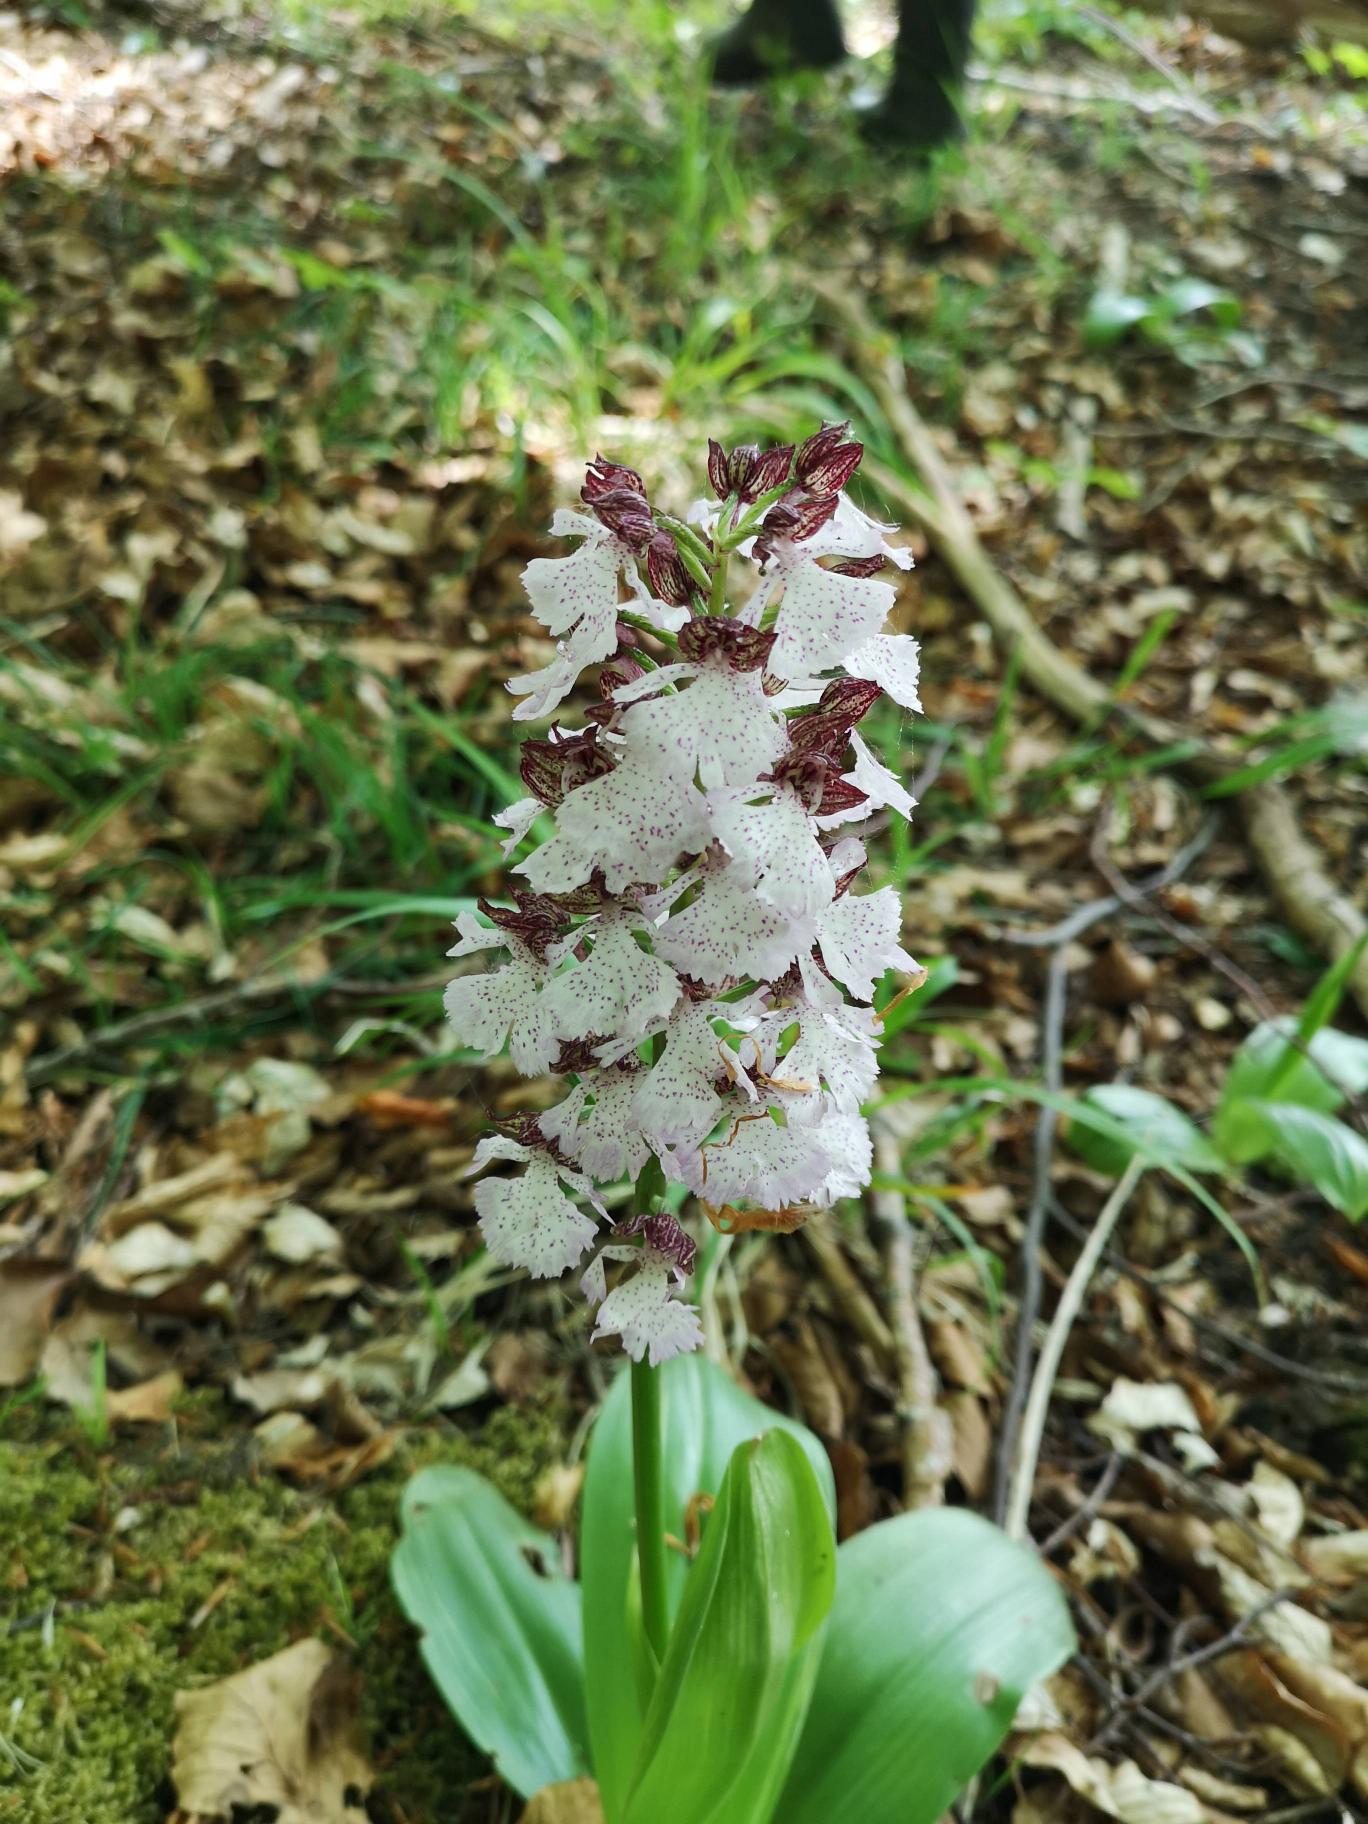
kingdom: Plantae
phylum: Tracheophyta
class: Liliopsida
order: Asparagales
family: Orchidaceae
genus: Orchis
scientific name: Orchis purpurea
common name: Stor gøgeurt
